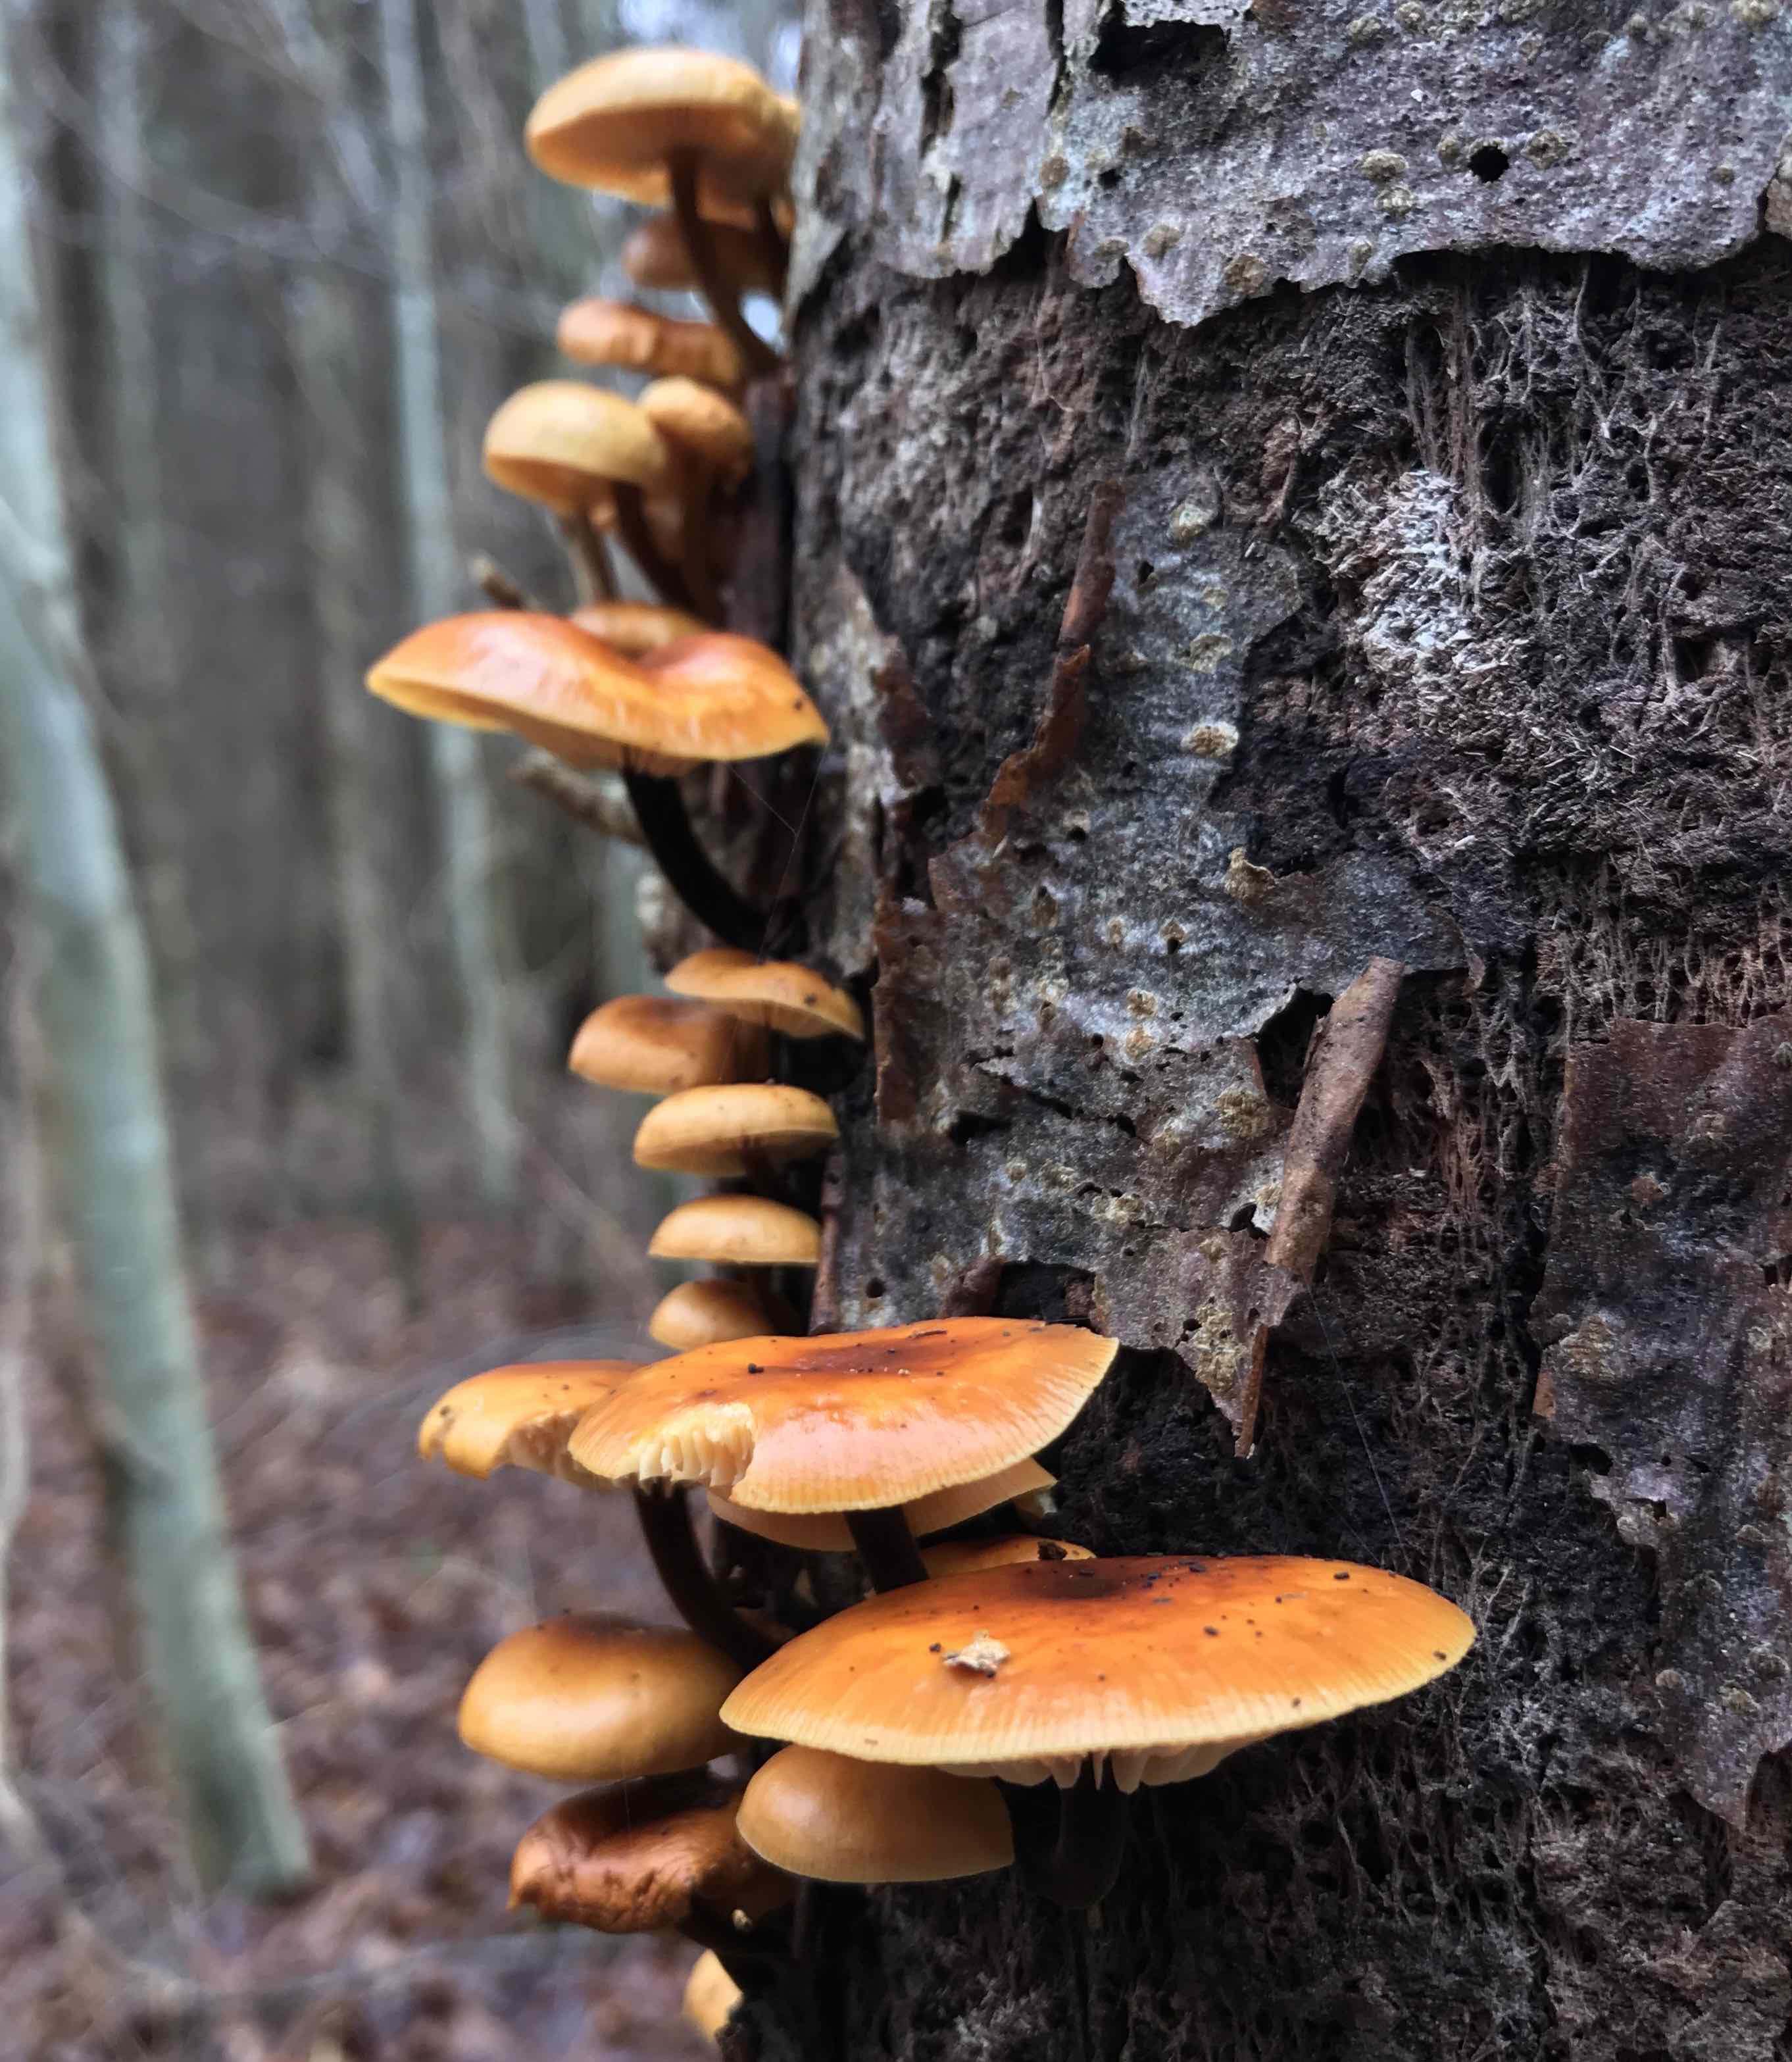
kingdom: Fungi
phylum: Basidiomycota
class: Agaricomycetes
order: Agaricales
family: Physalacriaceae
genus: Flammulina
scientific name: Flammulina velutipes
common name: gul fløjlsfod
